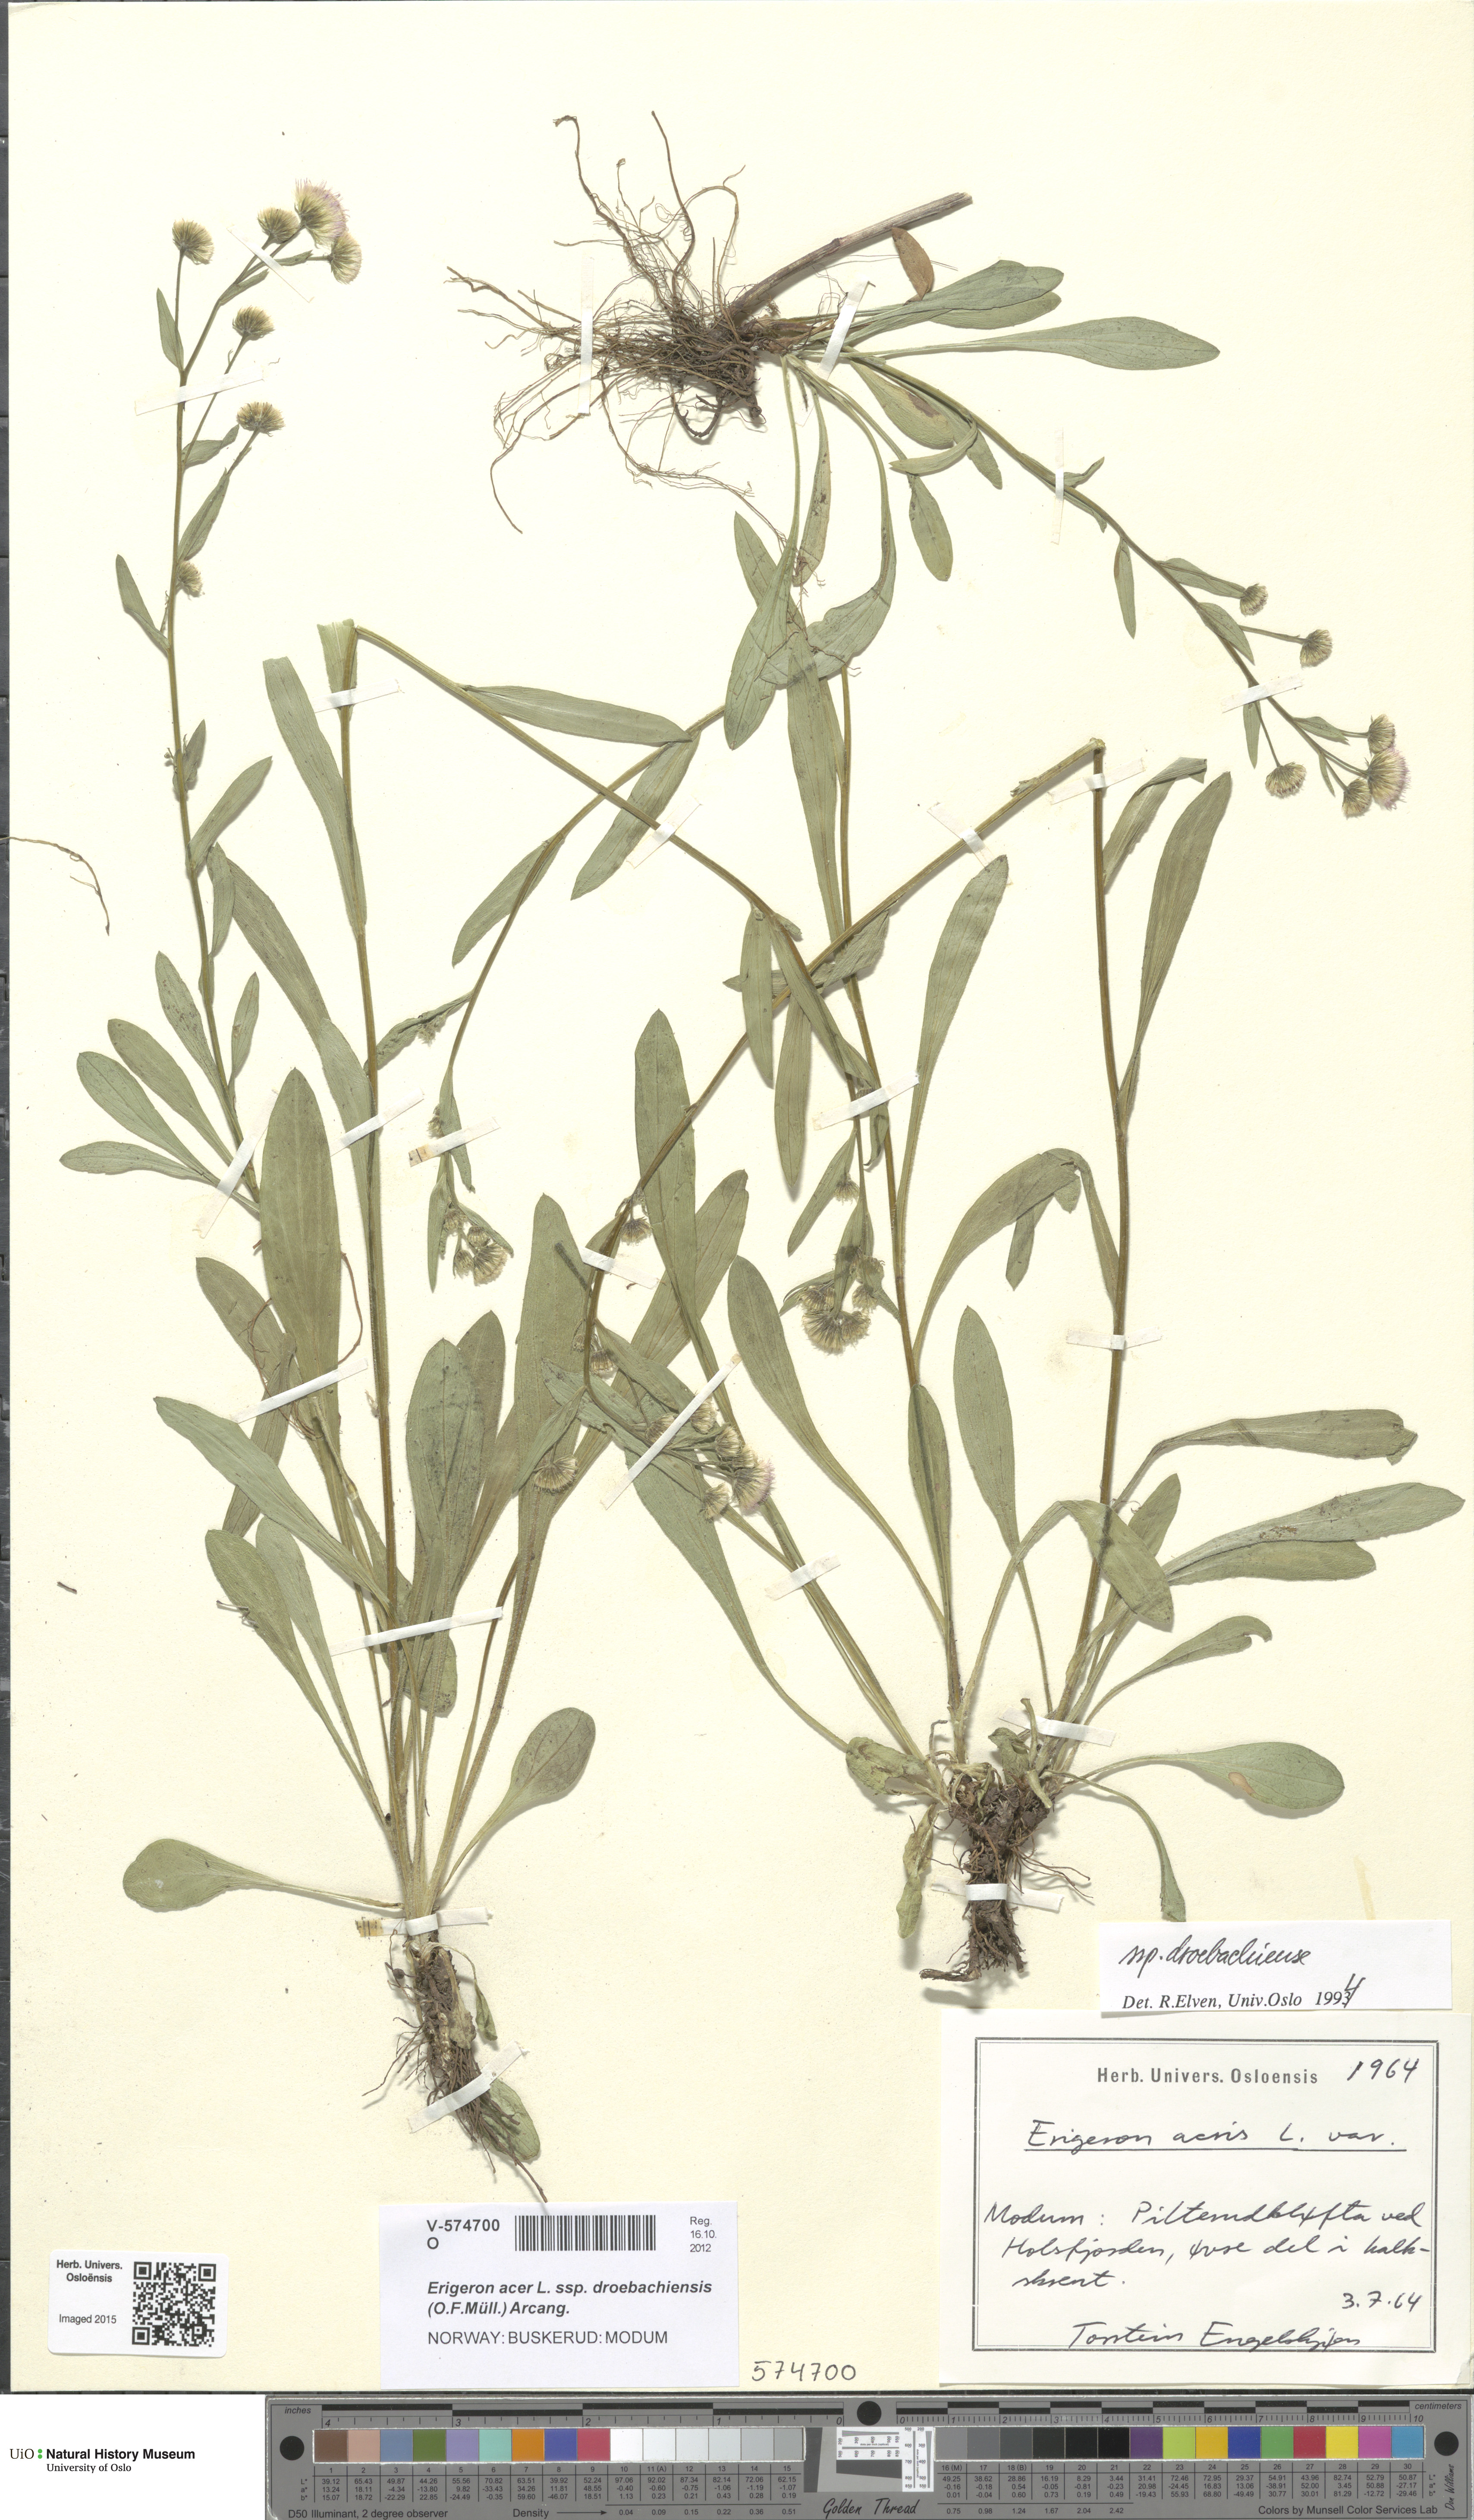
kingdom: Plantae
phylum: Tracheophyta
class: Magnoliopsida
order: Asterales
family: Asteraceae
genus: Erigeron
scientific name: Erigeron droebachiensis
